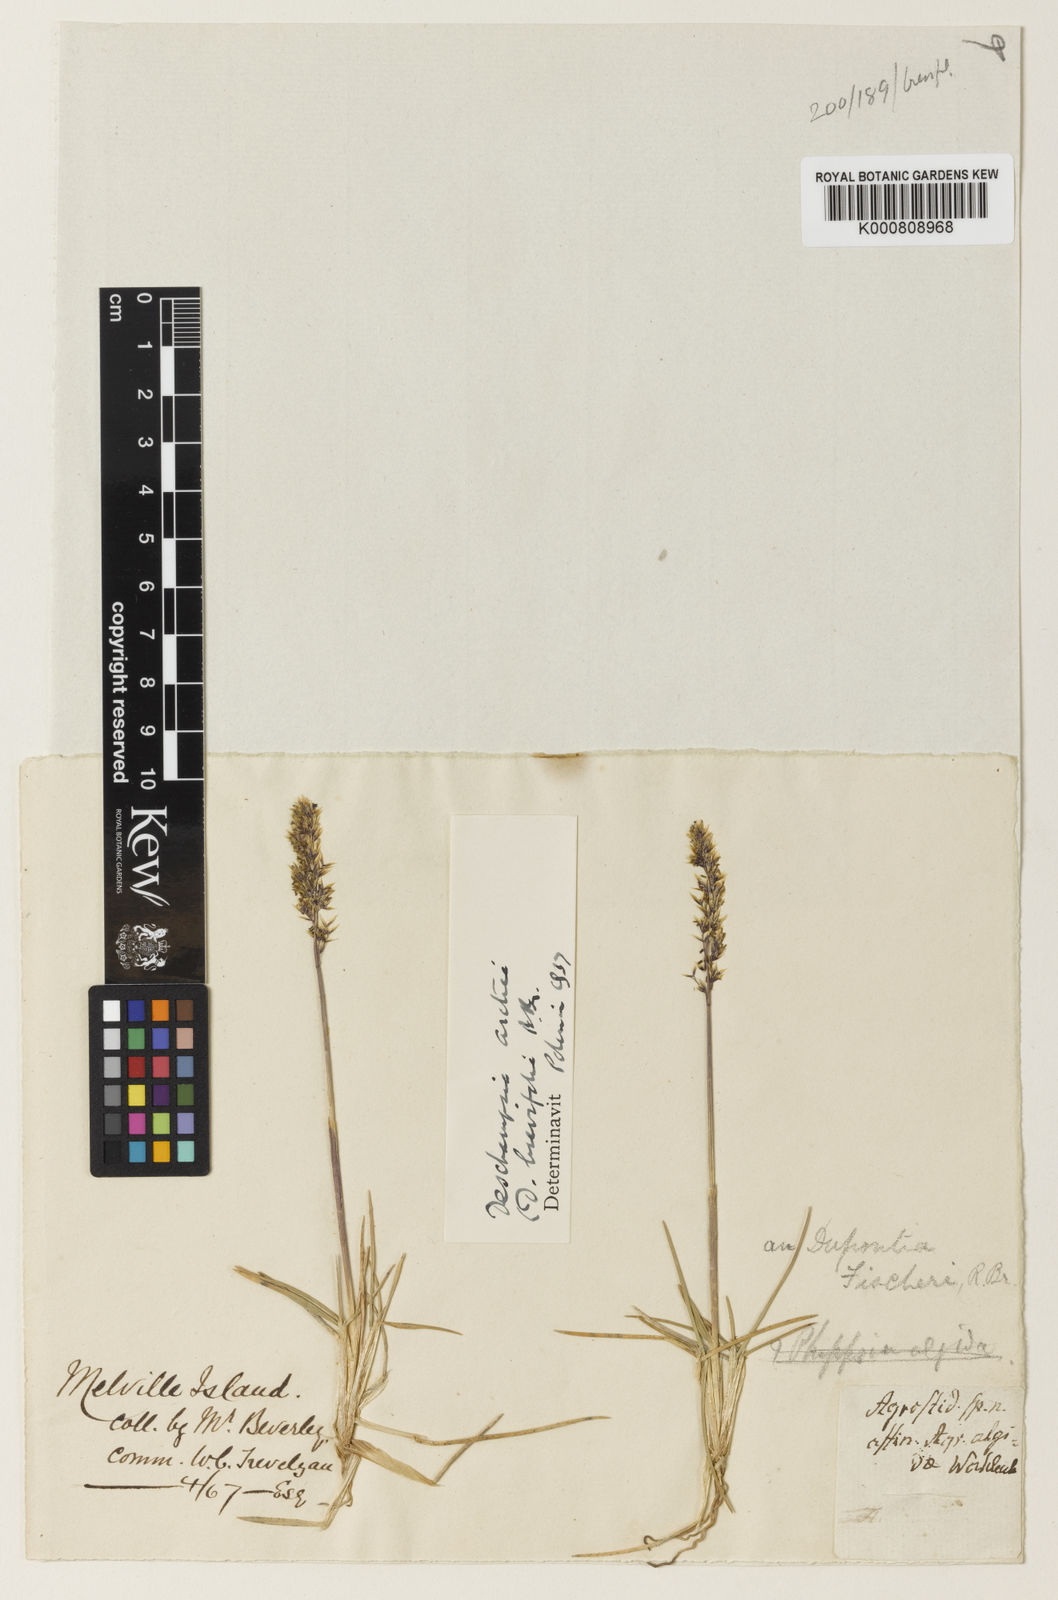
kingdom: Plantae
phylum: Tracheophyta
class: Liliopsida
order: Poales
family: Poaceae
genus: Deschampsia
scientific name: Deschampsia
